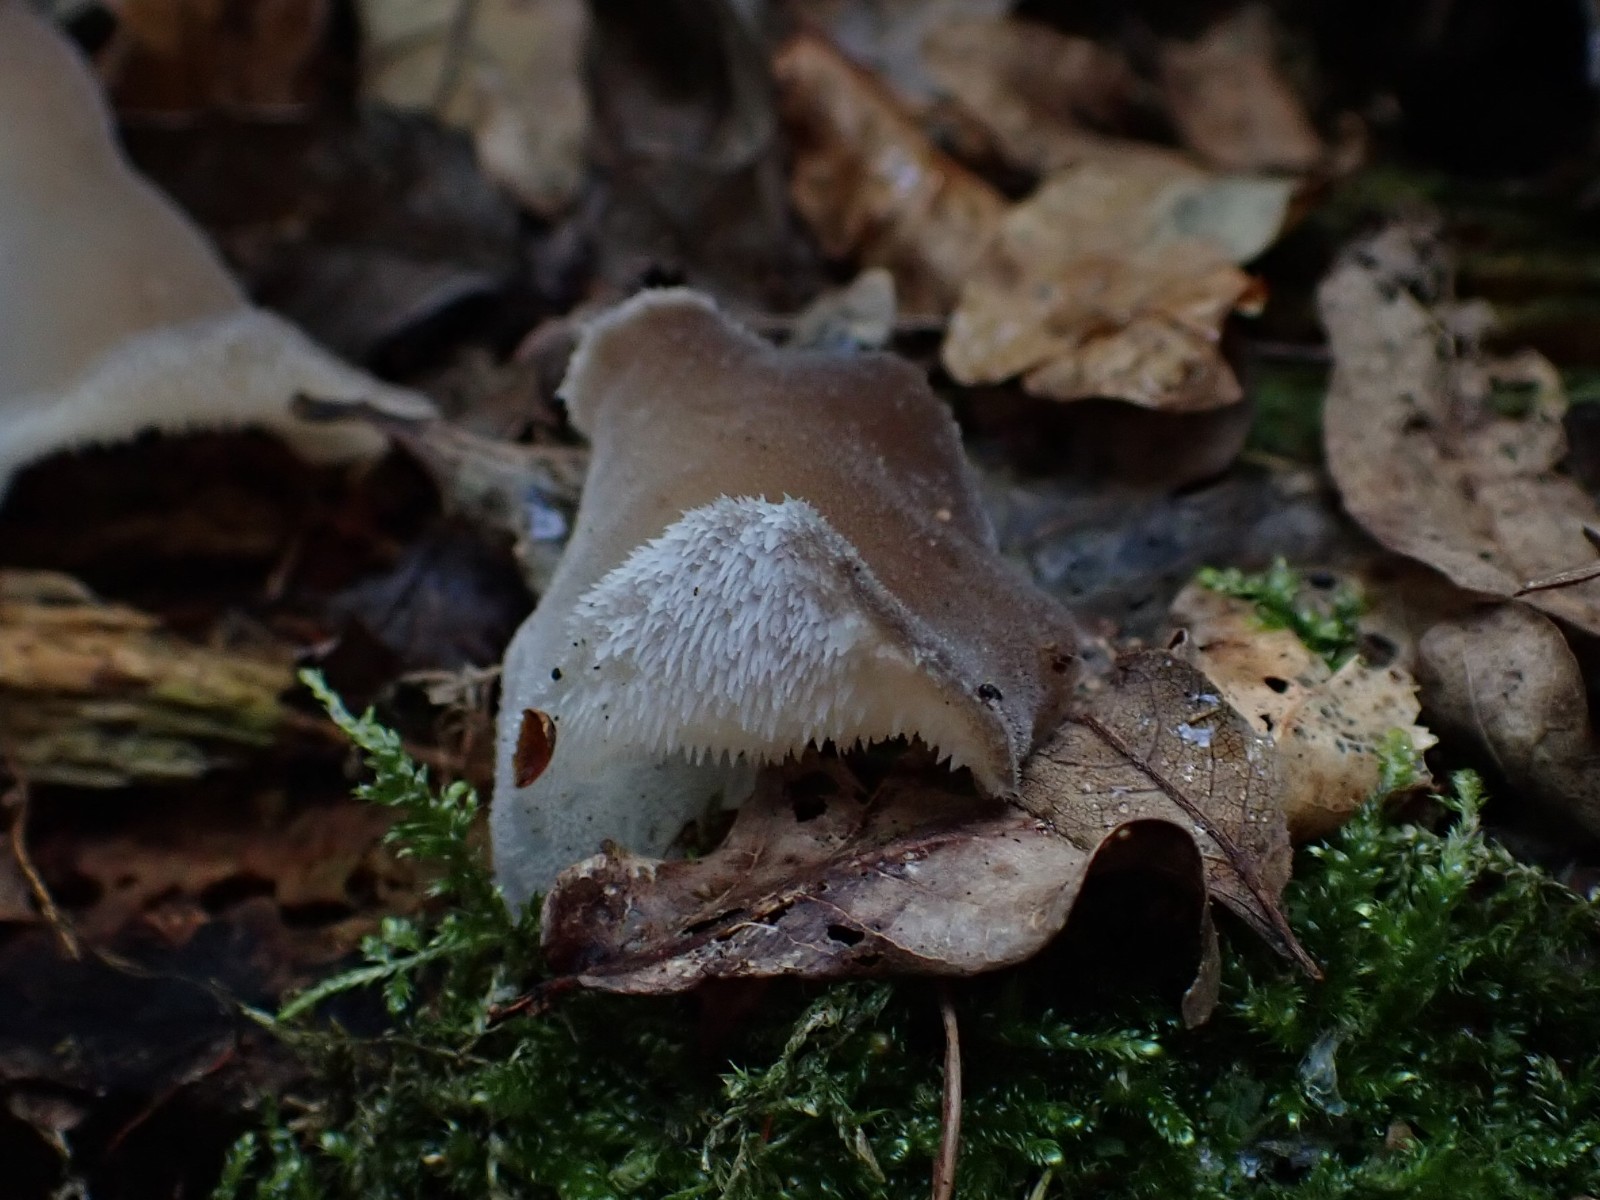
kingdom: Fungi
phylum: Basidiomycota
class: Agaricomycetes
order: Auriculariales
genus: Pseudohydnum
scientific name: Pseudohydnum gelatinosum
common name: bævretand
